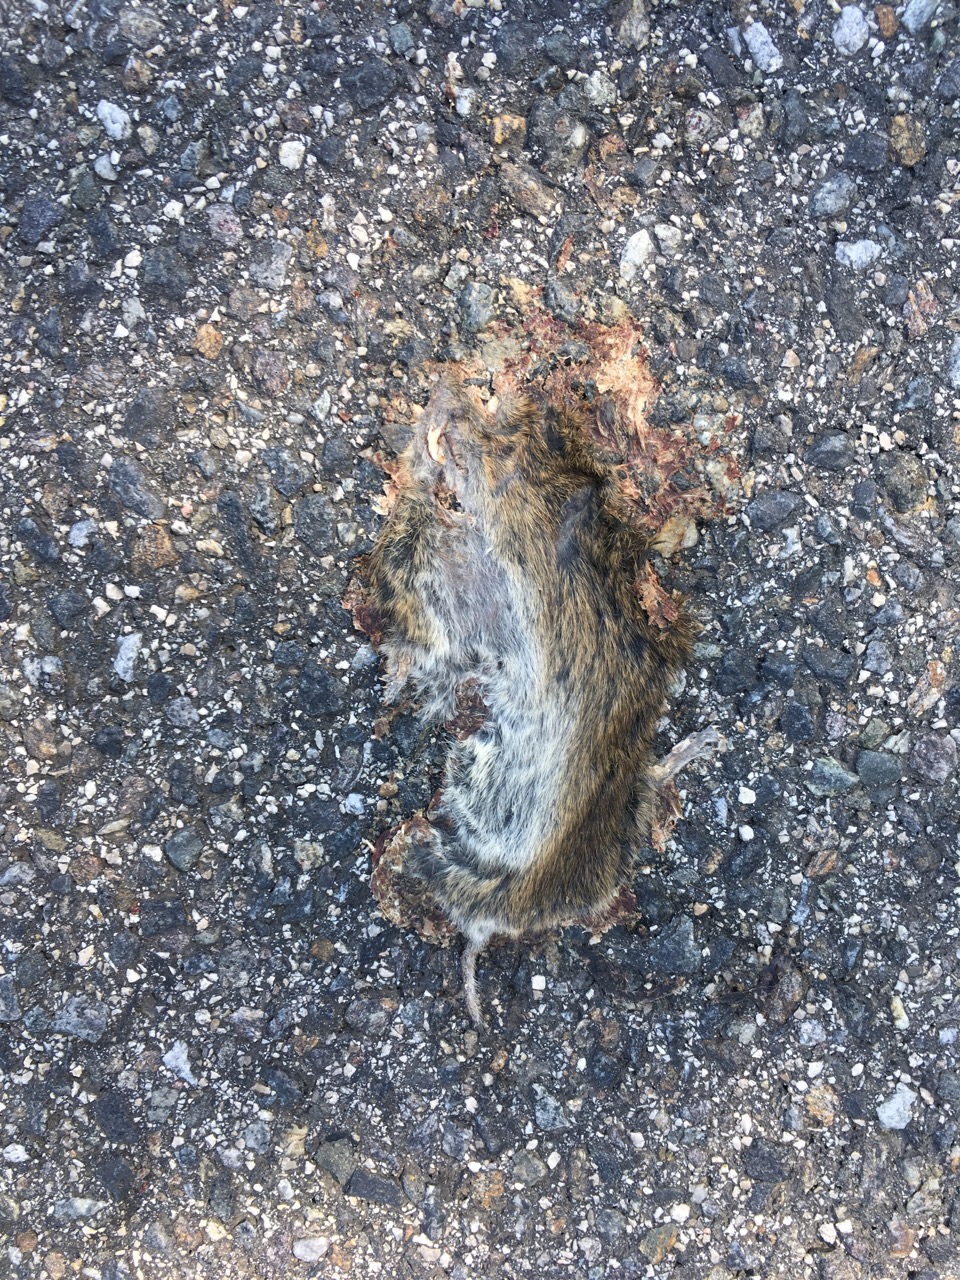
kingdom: Animalia
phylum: Chordata
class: Mammalia
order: Rodentia
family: Cricetidae
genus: Microtus
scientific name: Microtus
